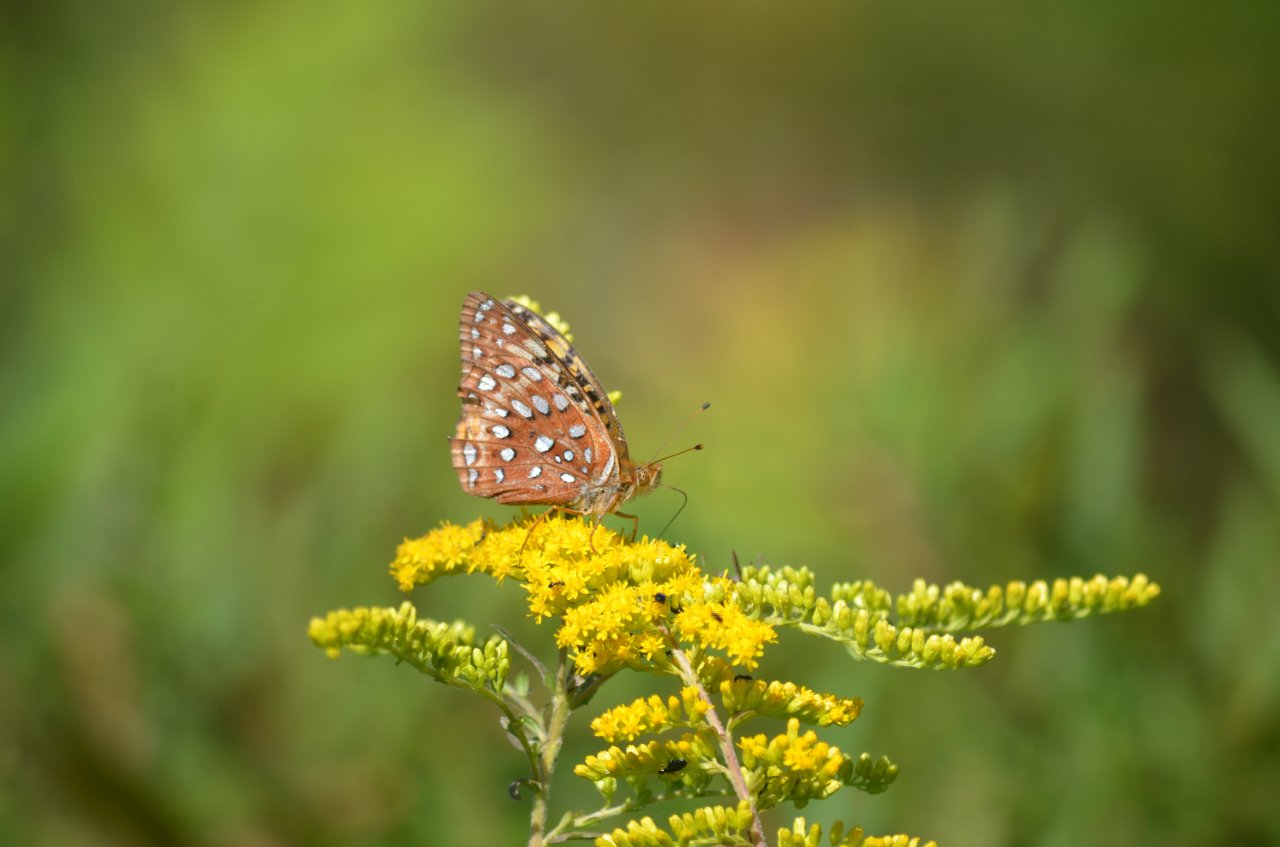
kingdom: Animalia
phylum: Arthropoda
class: Insecta
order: Lepidoptera
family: Nymphalidae
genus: Speyeria
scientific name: Speyeria
